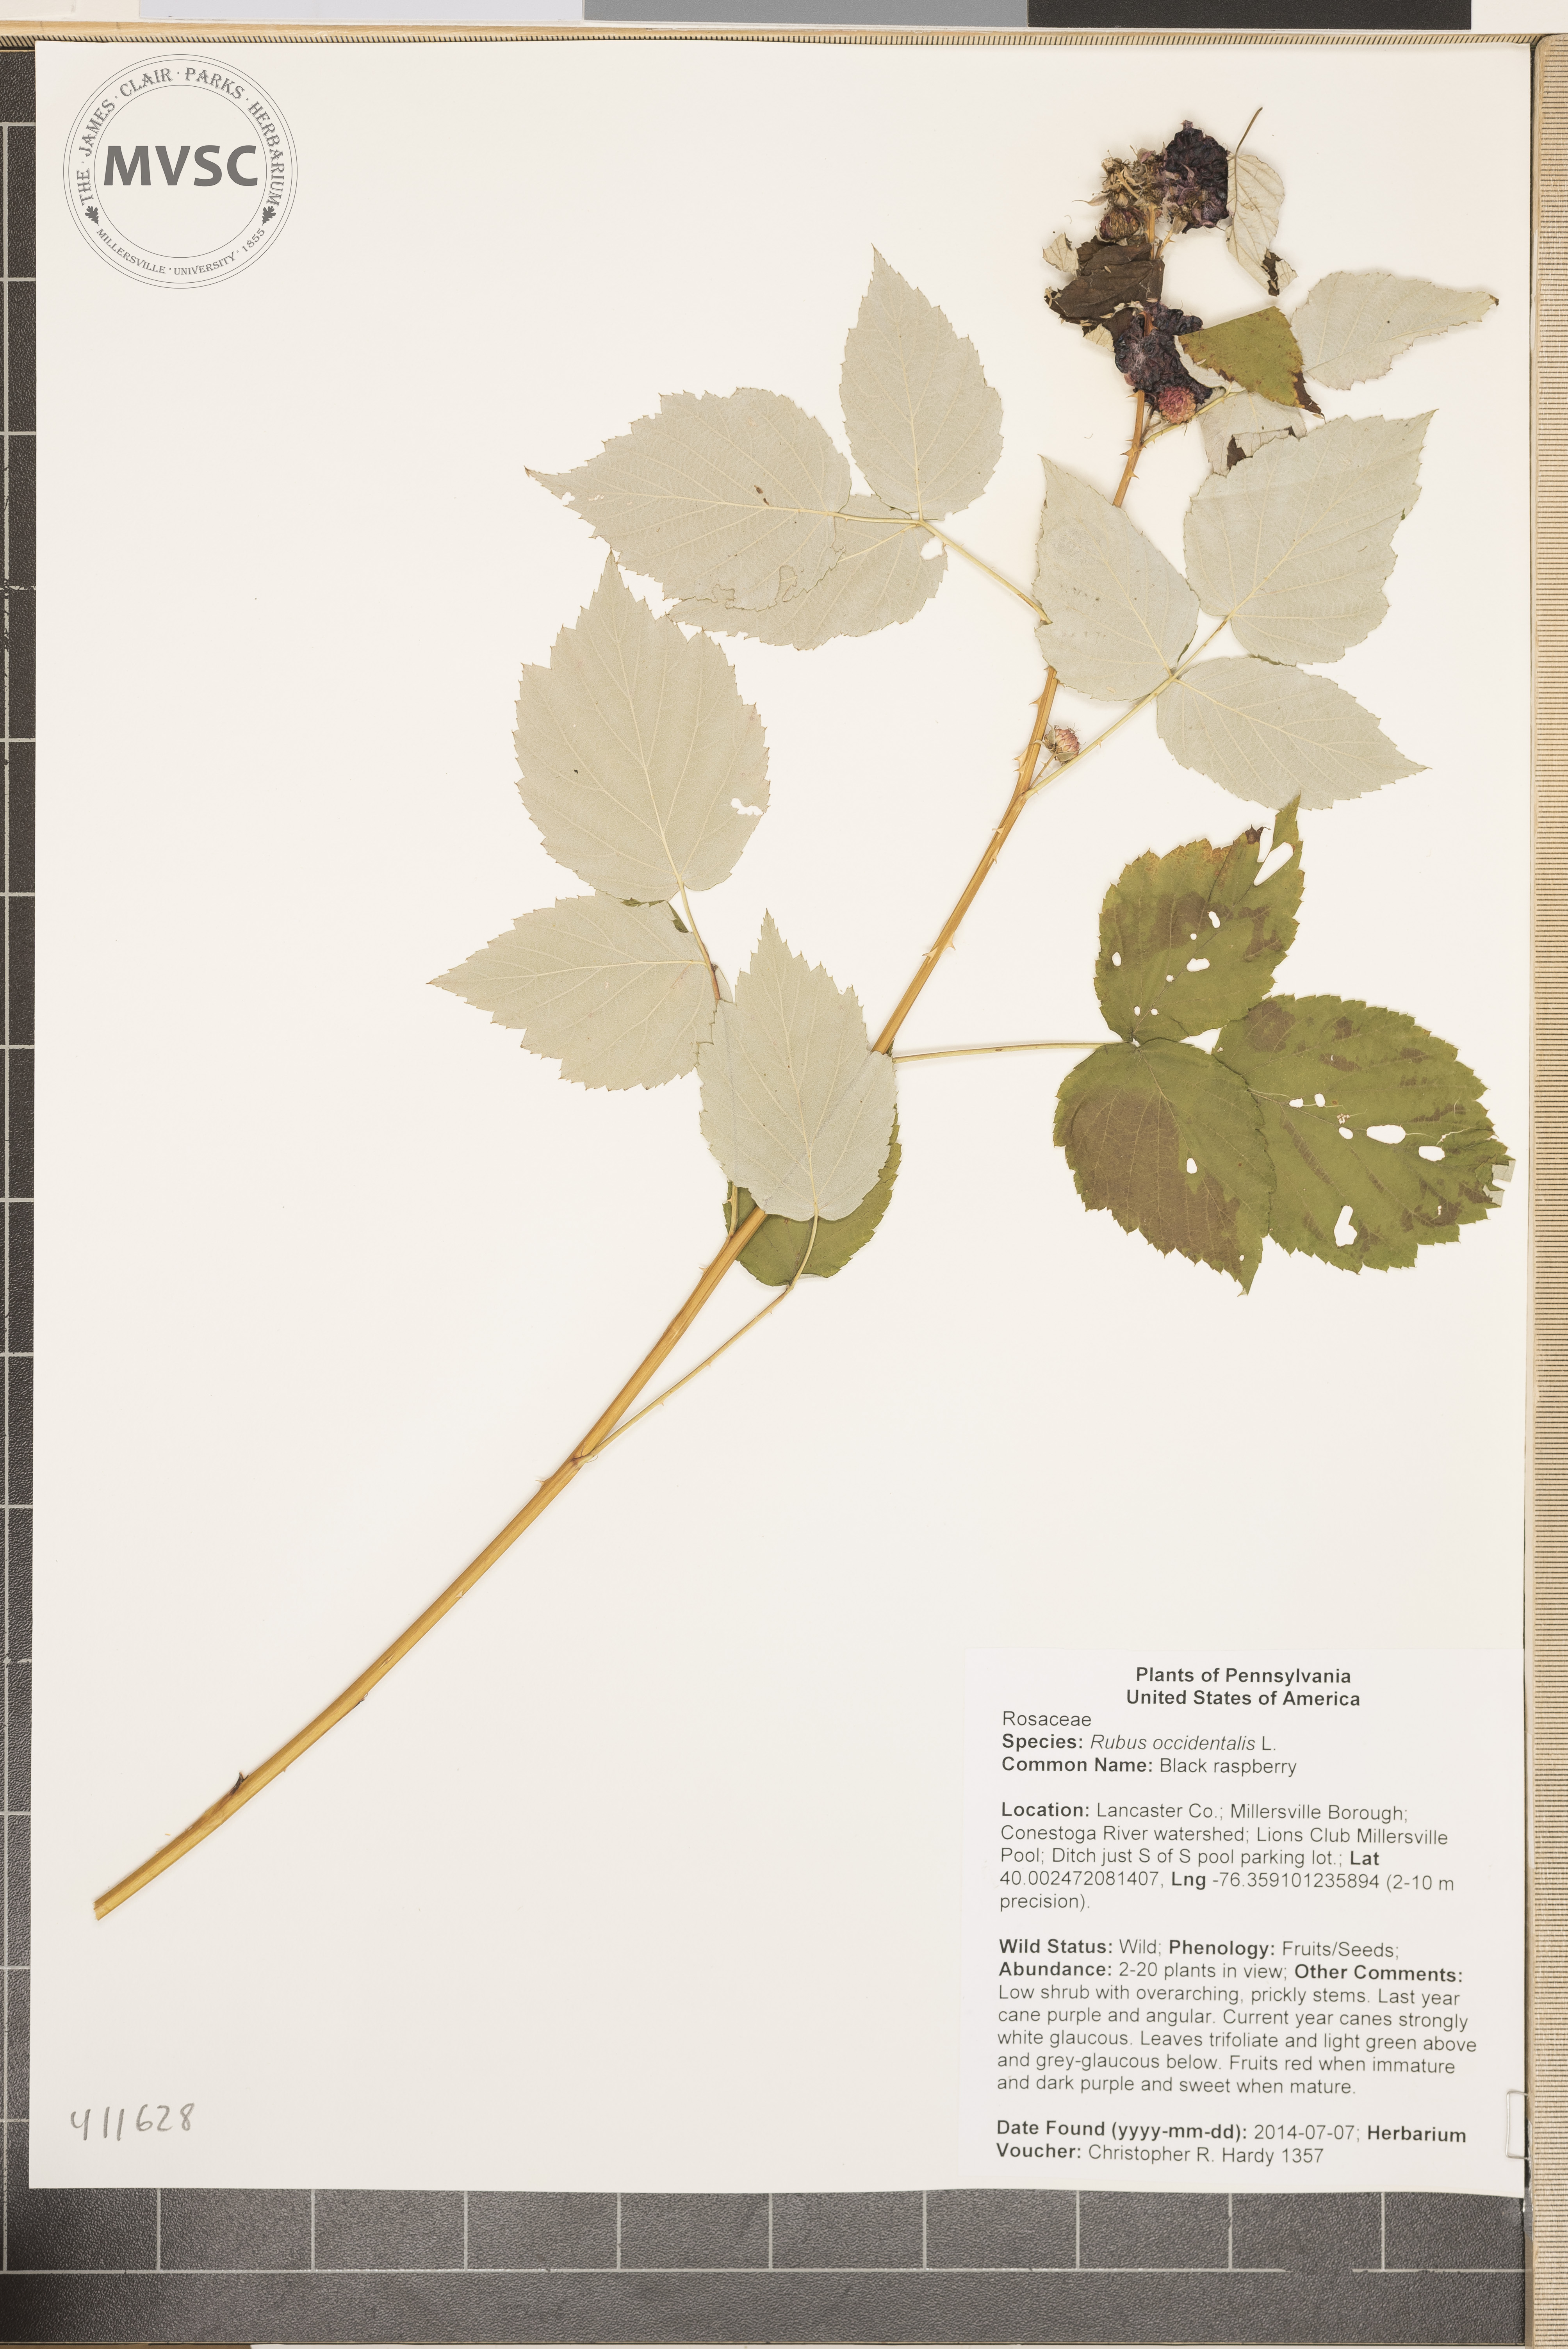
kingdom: Plantae
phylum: Tracheophyta
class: Magnoliopsida
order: Rosales
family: Rosaceae
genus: Rubus
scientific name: Rubus occidentalis
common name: Black raspberry
